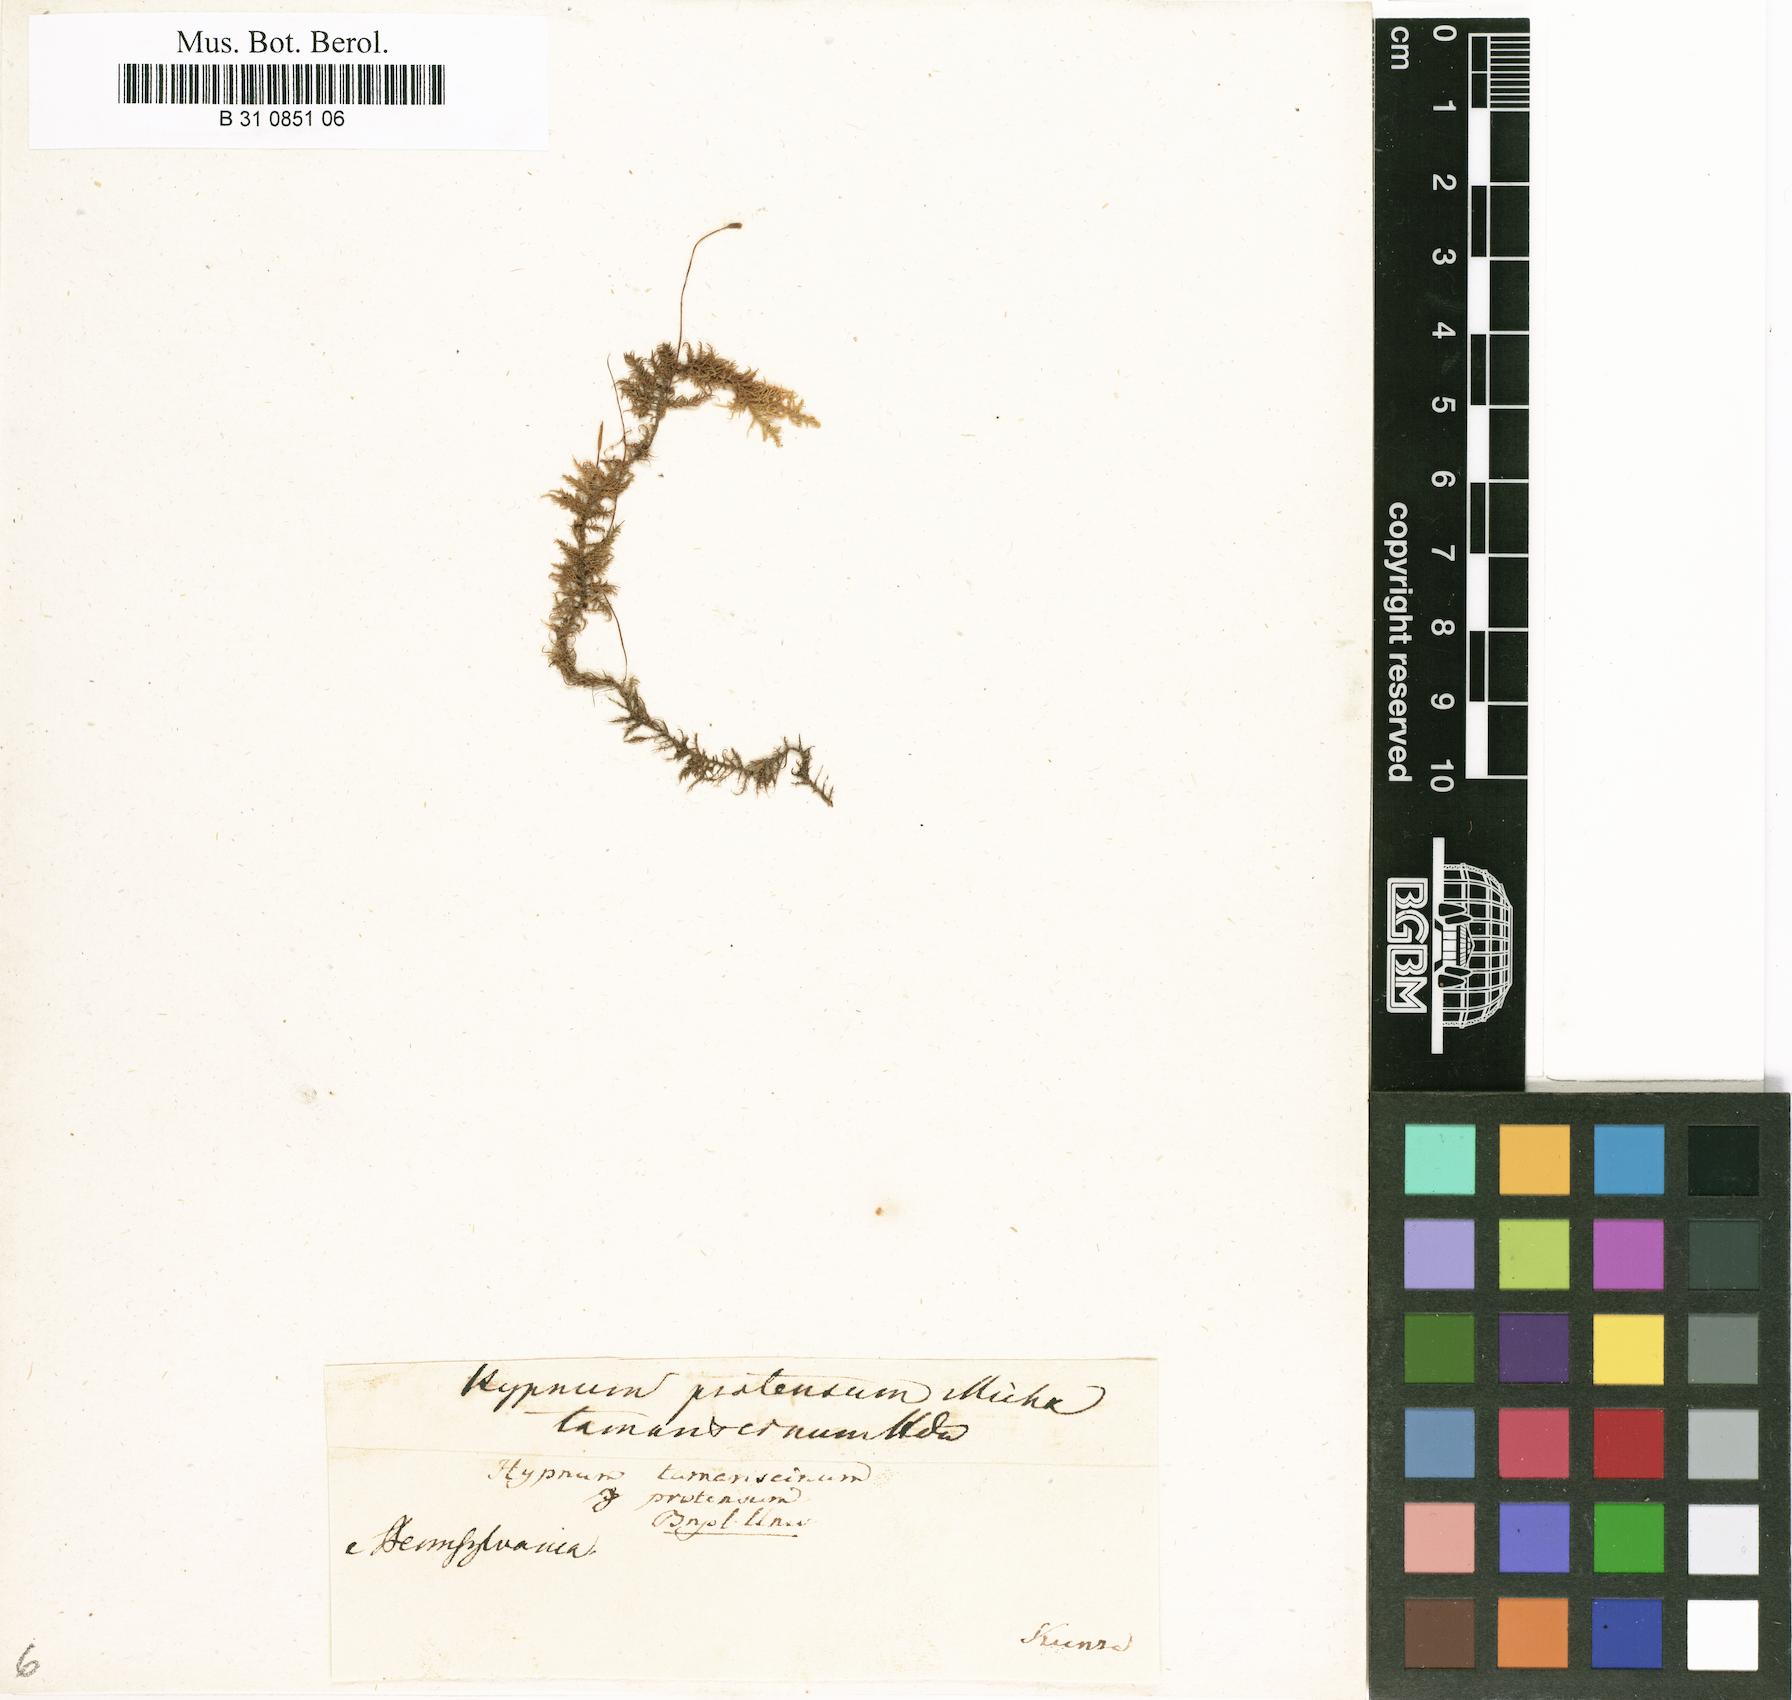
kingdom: Plantae
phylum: Bryophyta
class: Bryopsida
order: Hypnales
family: Thuidiaceae
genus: Thuidium
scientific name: Thuidium tamariscinum
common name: Common tamarisk-moss
